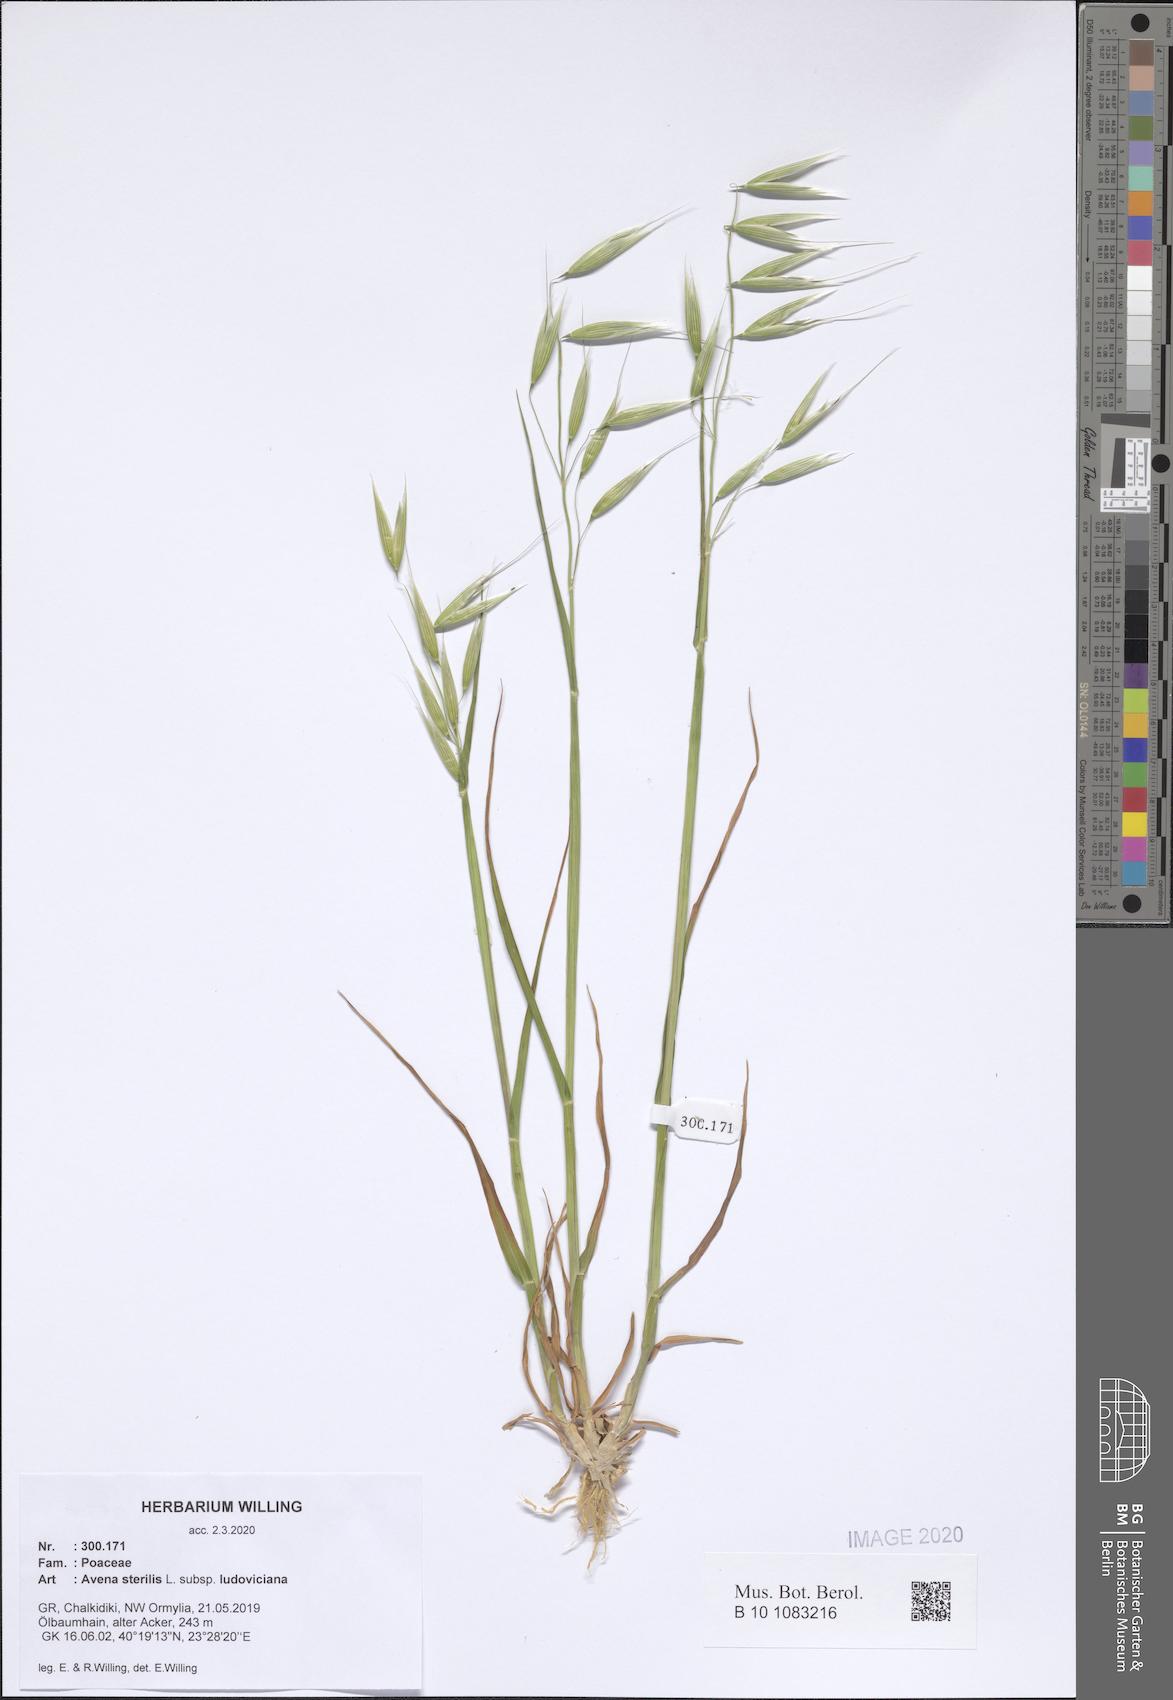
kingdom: Plantae
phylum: Tracheophyta
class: Liliopsida
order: Poales
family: Poaceae
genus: Avena
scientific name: Avena sterilis
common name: Animated oat
